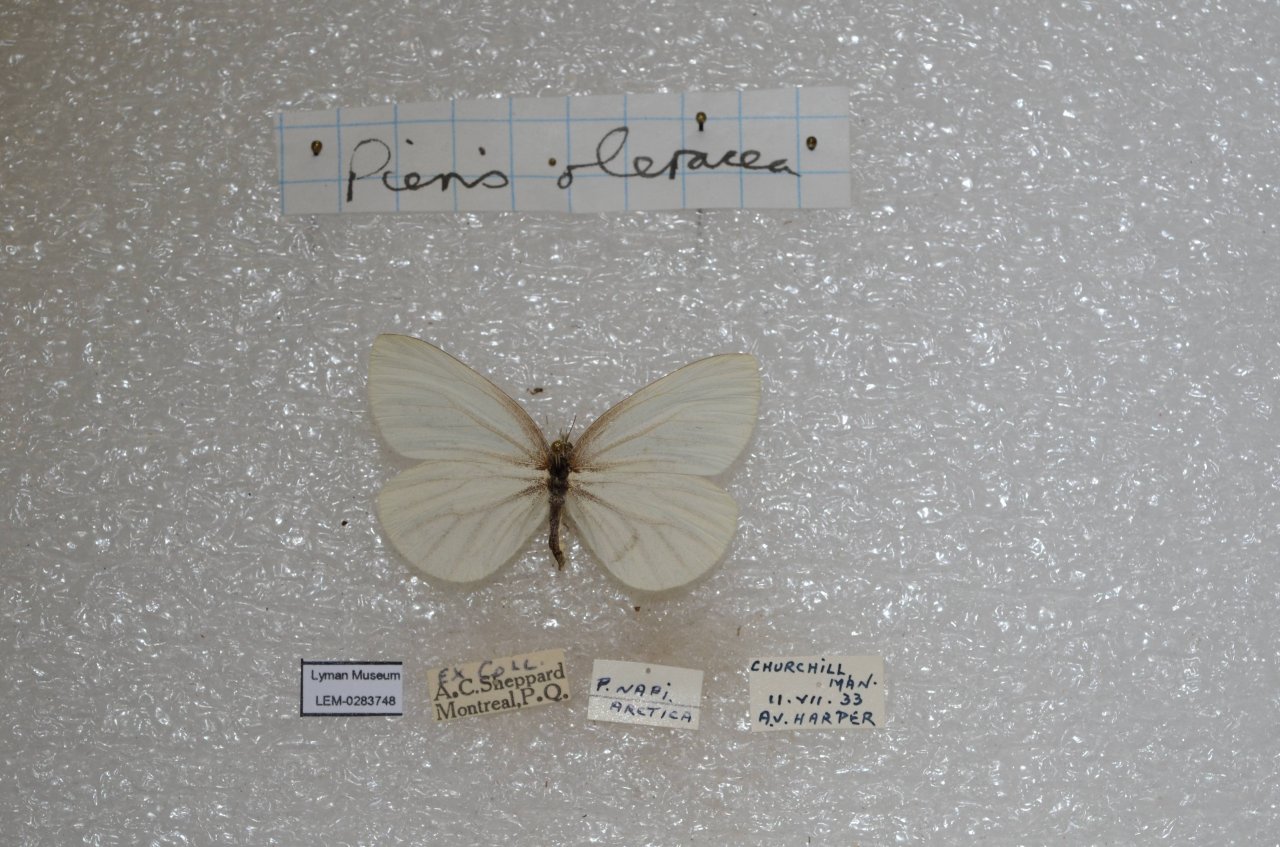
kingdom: Animalia
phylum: Arthropoda
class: Insecta
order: Lepidoptera
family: Pieridae
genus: Pieris
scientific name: Pieris oleracea
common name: Mustard White
